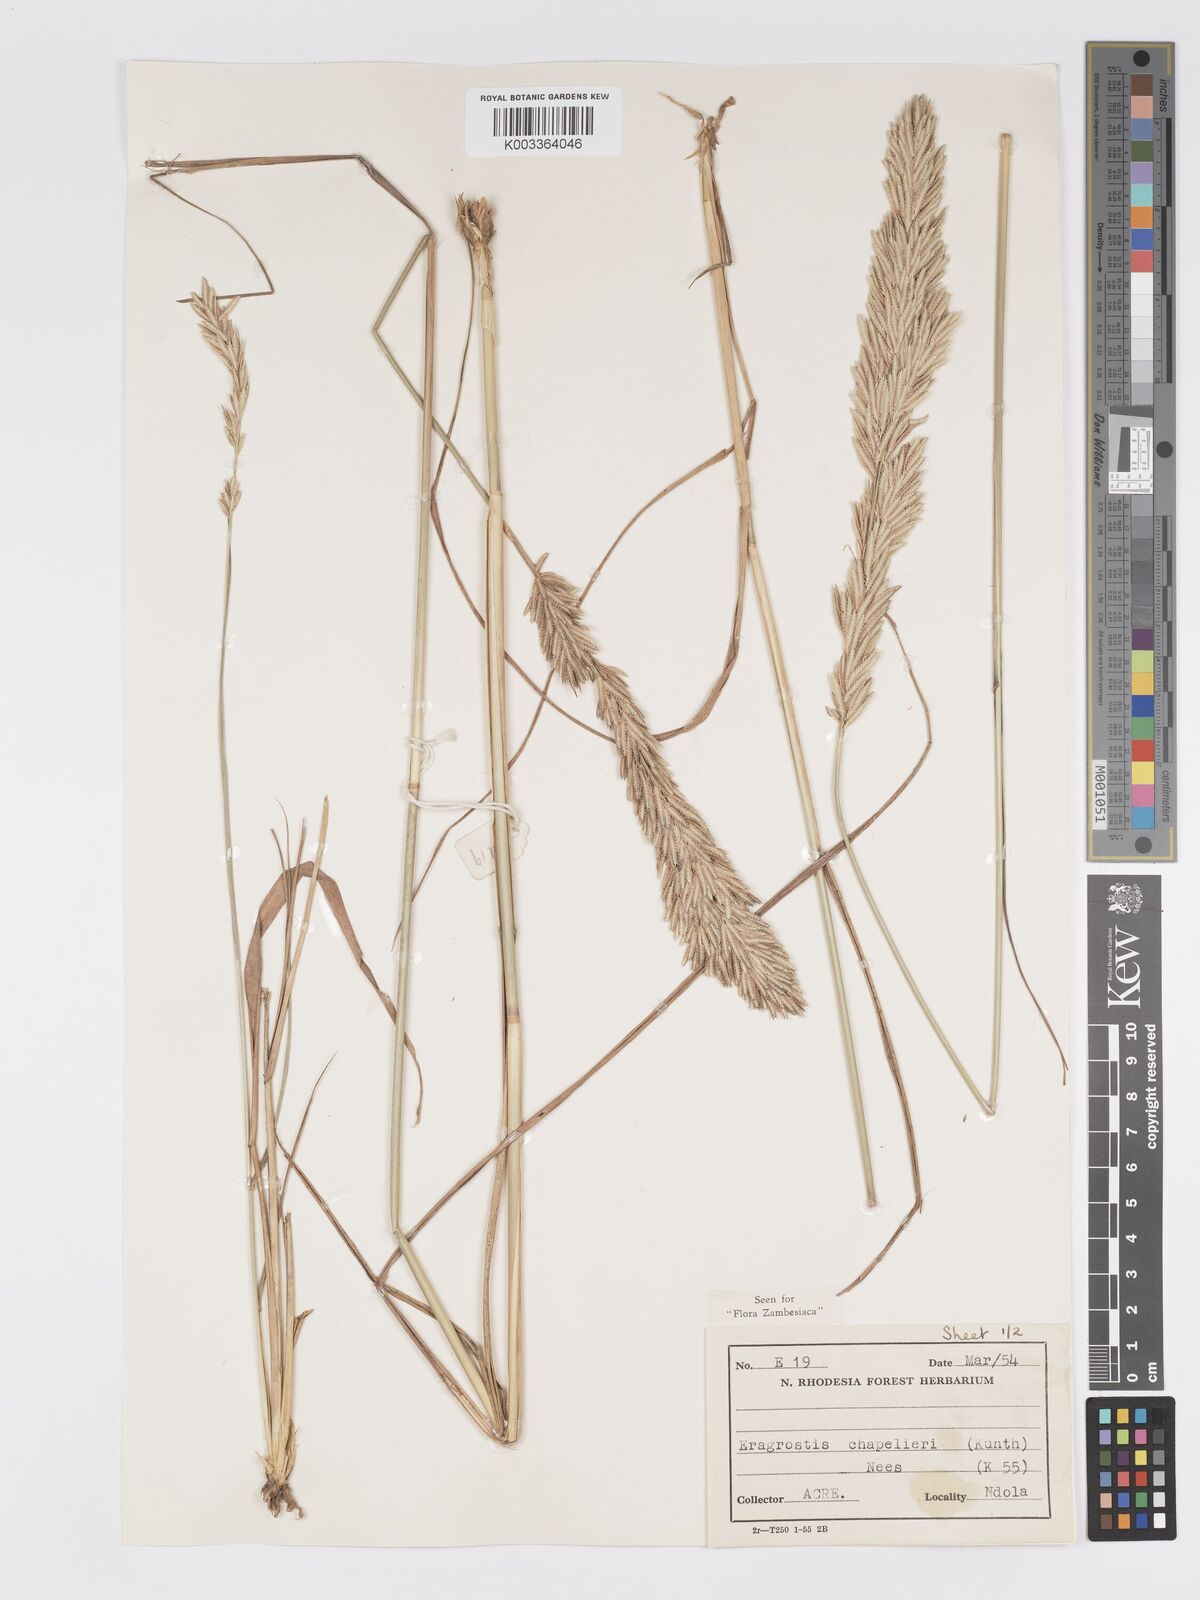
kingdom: Plantae
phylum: Tracheophyta
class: Liliopsida
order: Poales
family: Poaceae
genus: Eragrostis
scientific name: Eragrostis chapelieri
